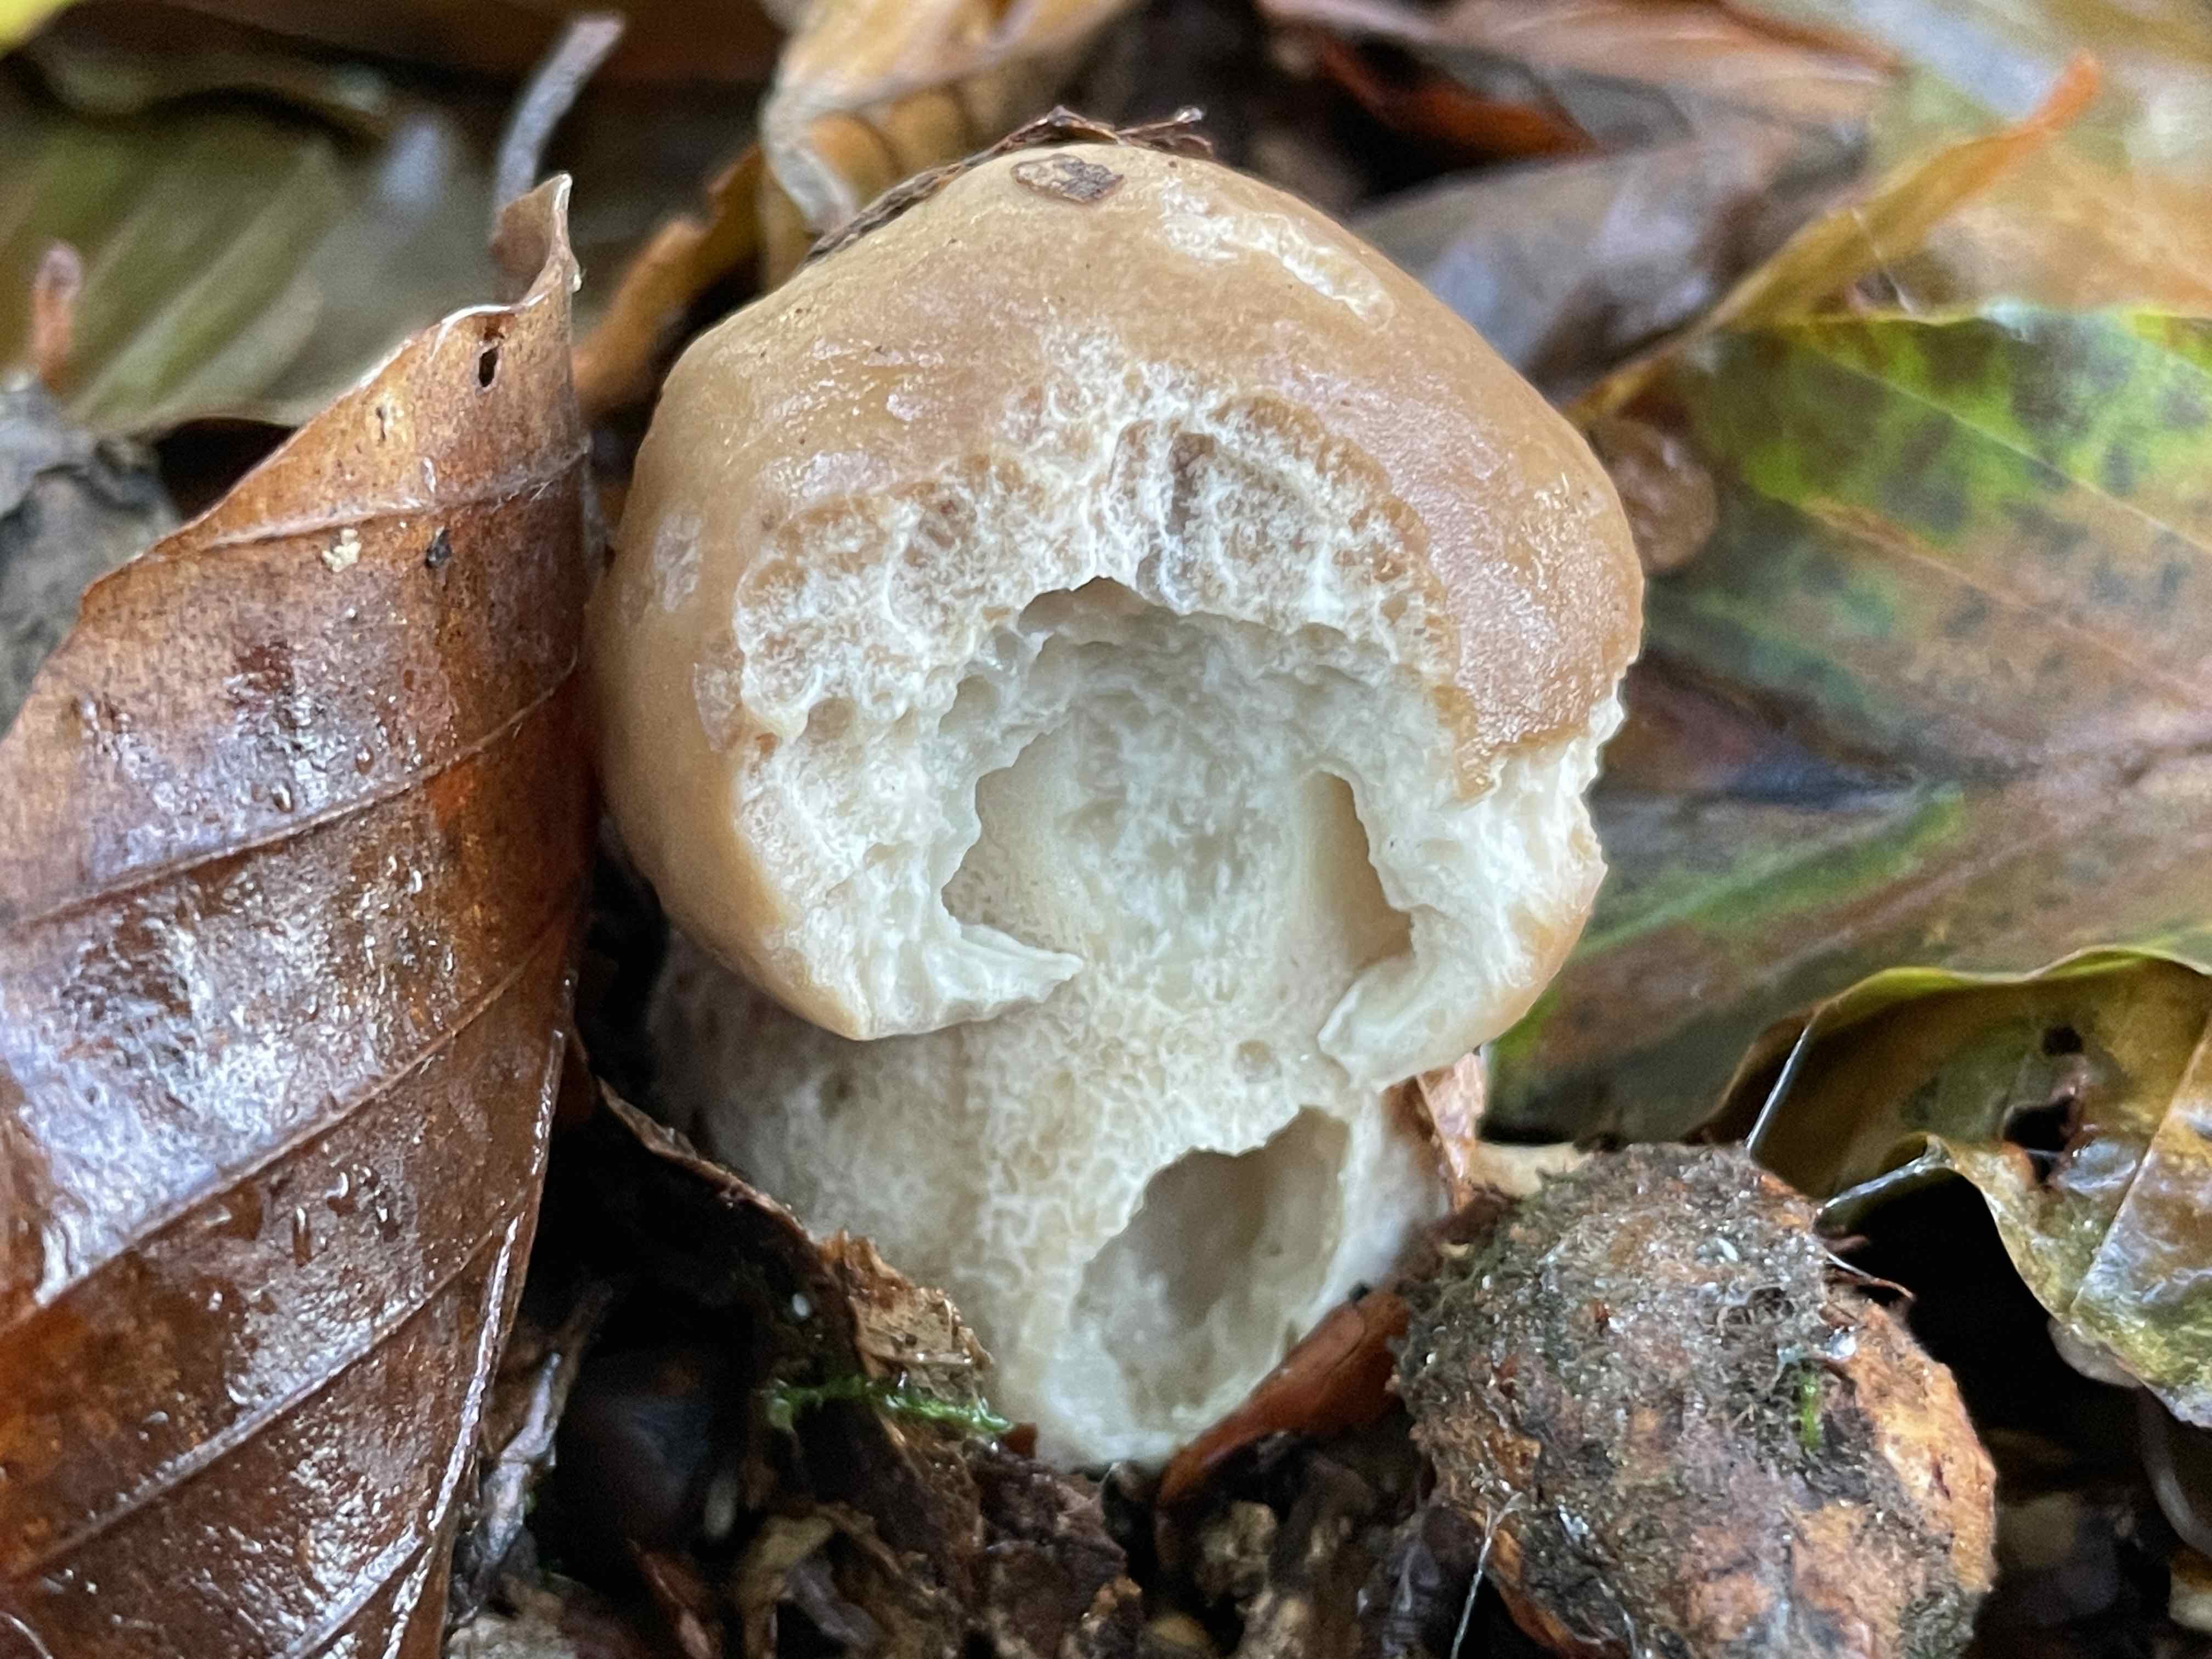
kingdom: Fungi
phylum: Basidiomycota
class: Agaricomycetes
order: Boletales
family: Boletaceae
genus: Boletus
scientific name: Boletus edulis
